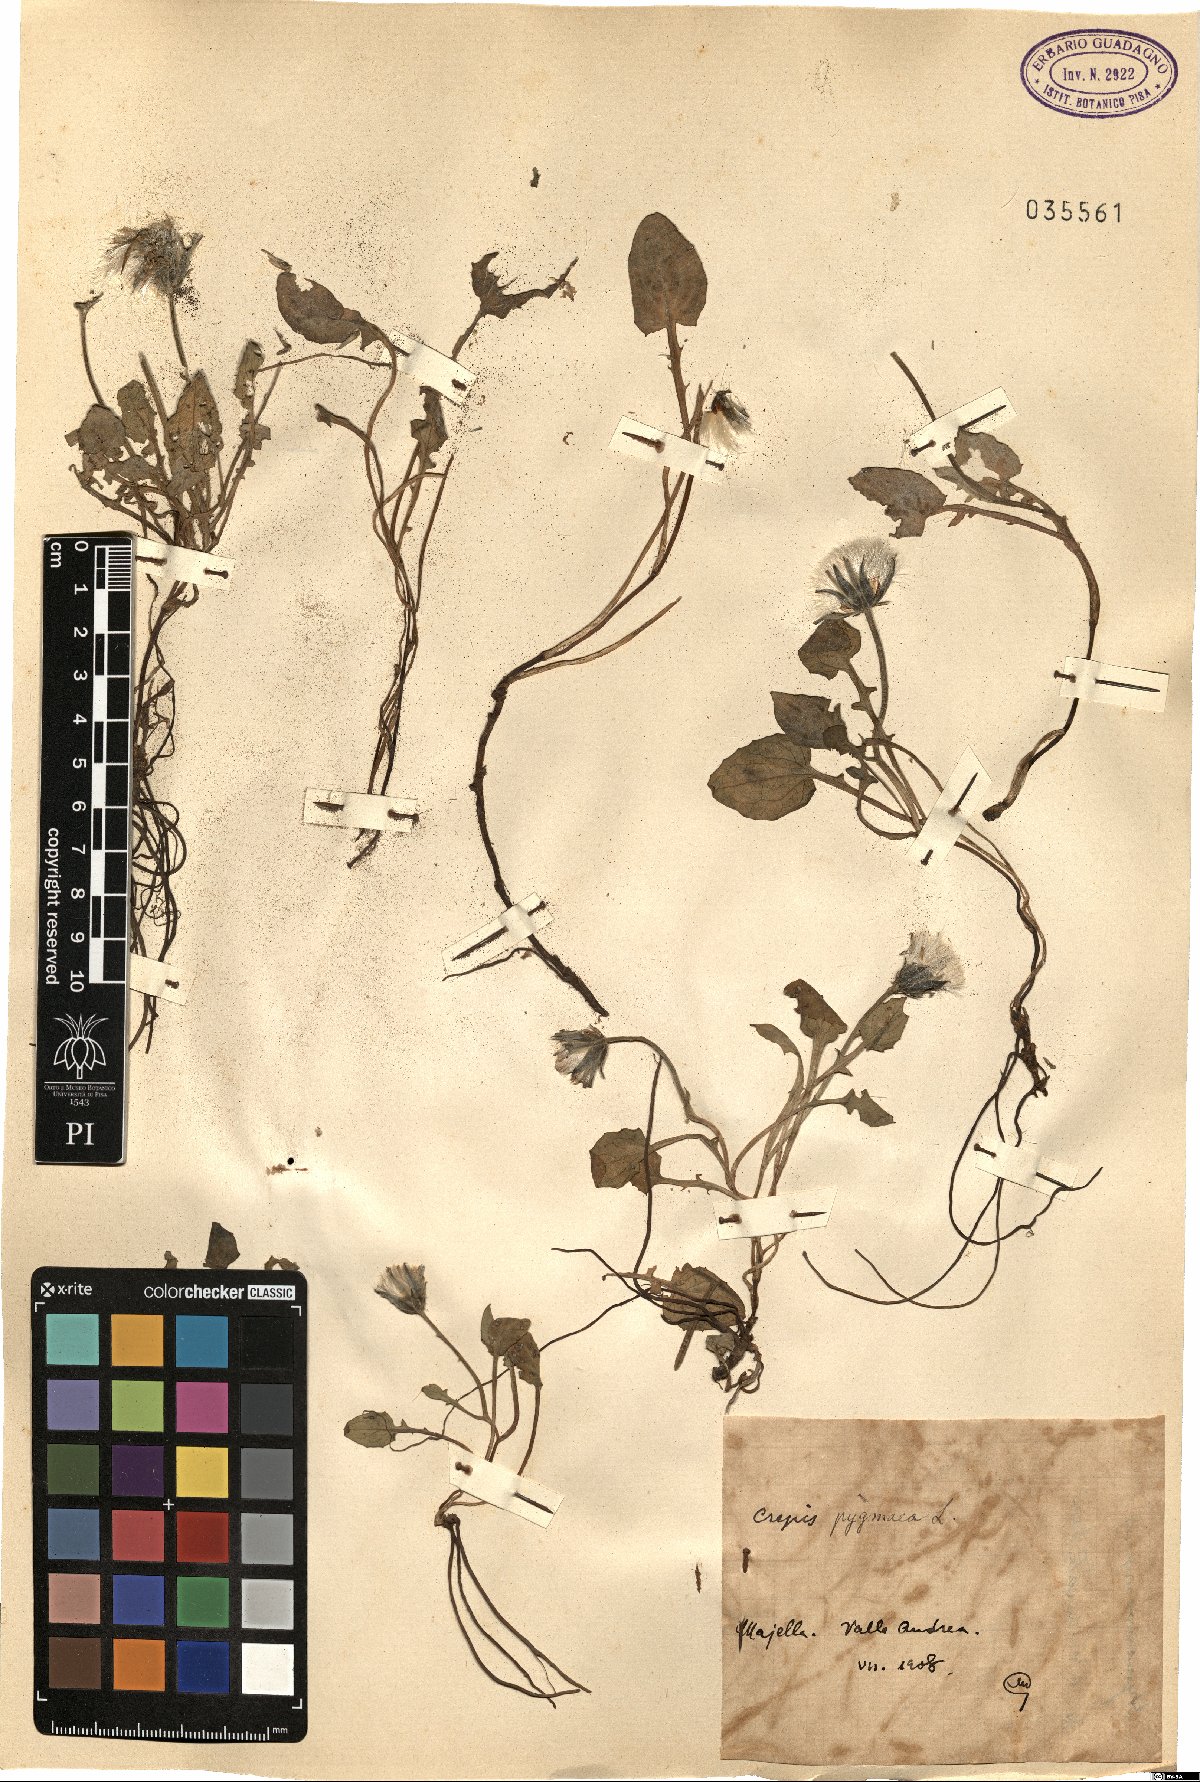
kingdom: Plantae
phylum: Tracheophyta
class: Magnoliopsida
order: Asterales
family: Asteraceae
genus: Crepis
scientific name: Crepis pygmaea
